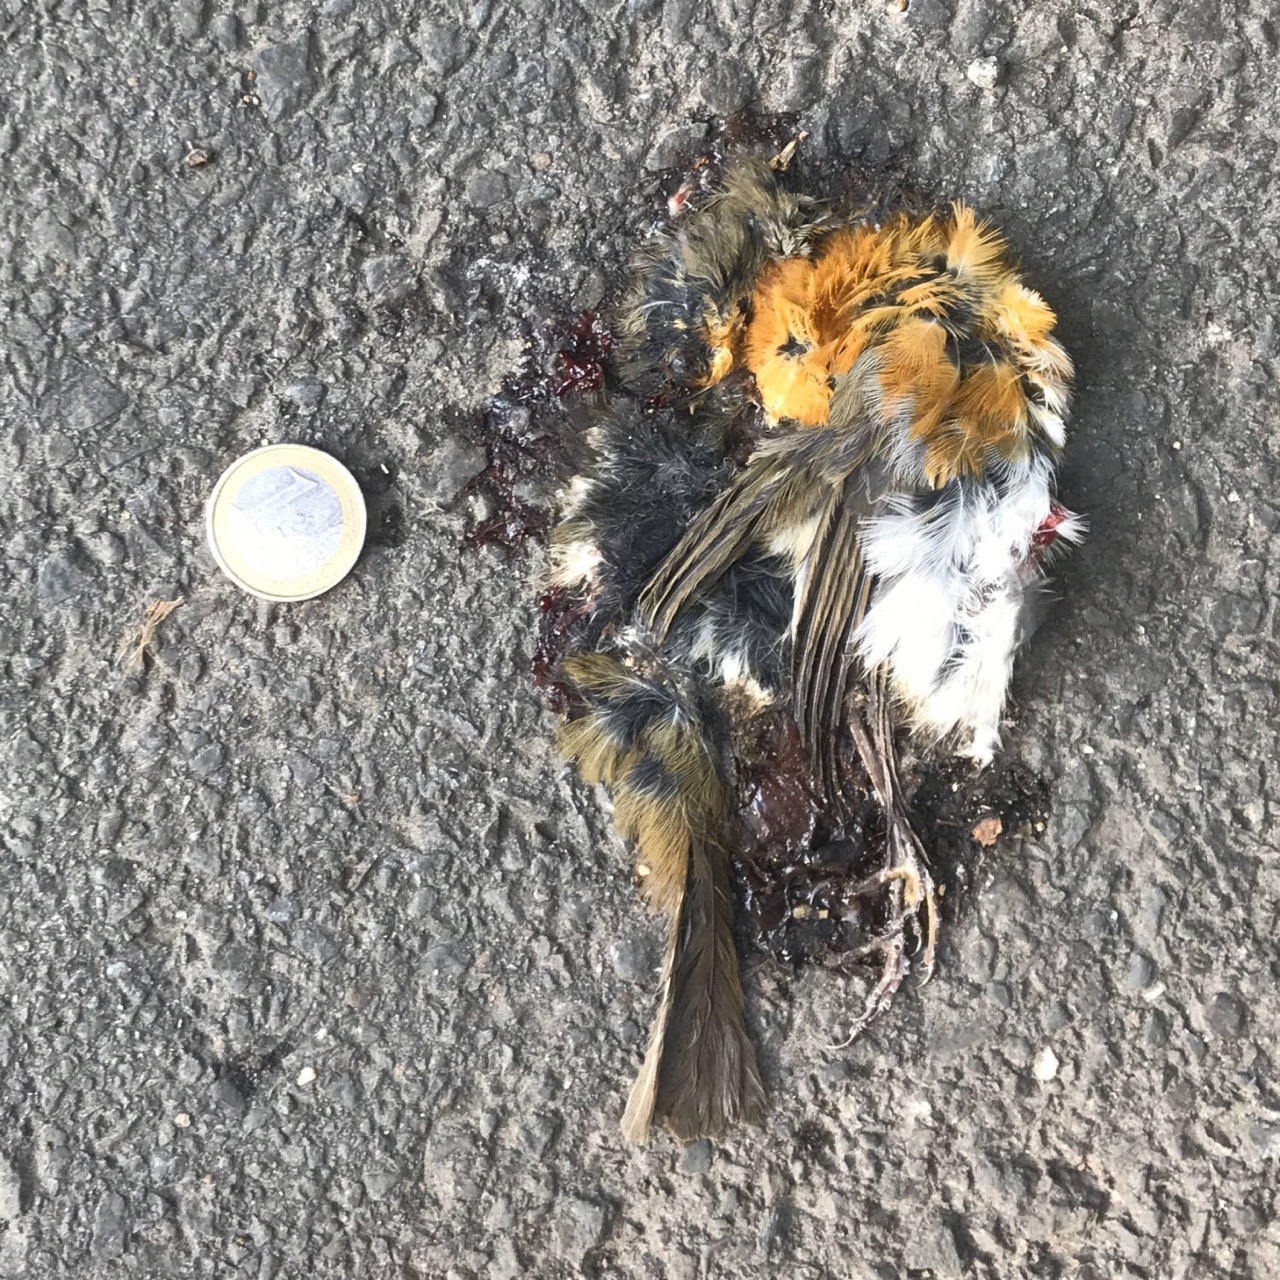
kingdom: Animalia
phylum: Chordata
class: Aves
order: Passeriformes
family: Muscicapidae
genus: Erithacus
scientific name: Erithacus rubecula
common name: European robin
